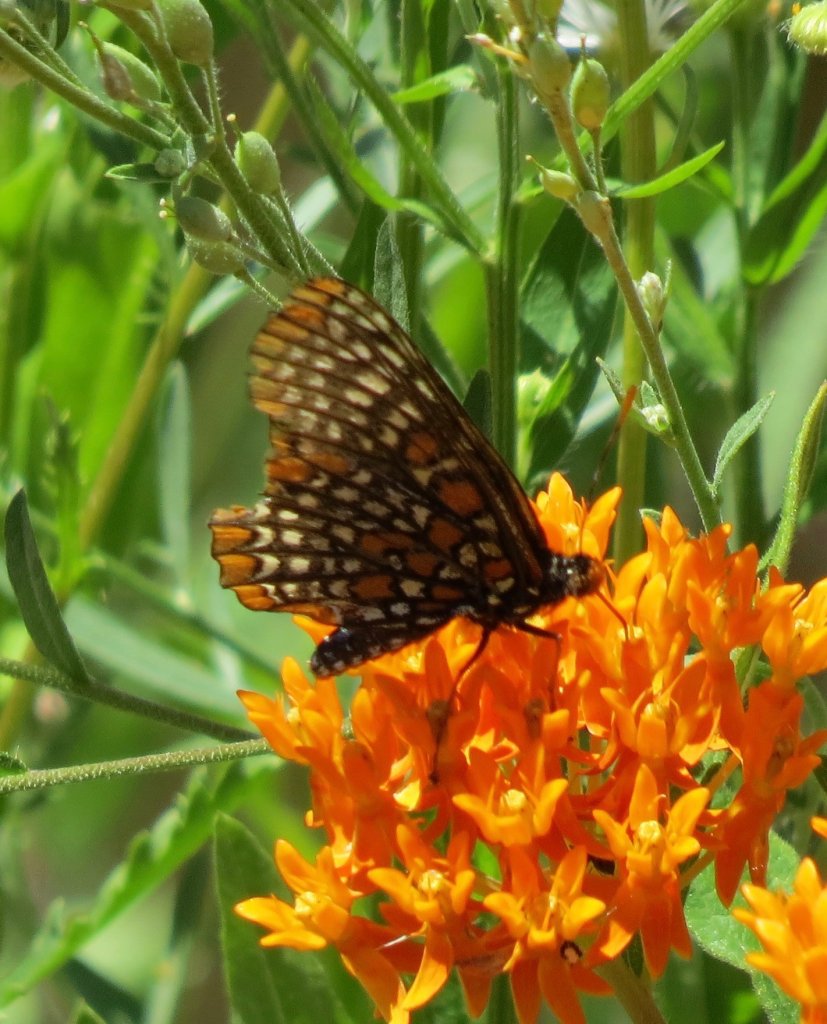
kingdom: Animalia
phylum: Arthropoda
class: Insecta
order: Lepidoptera
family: Nymphalidae
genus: Euphydryas
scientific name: Euphydryas phaeton
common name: Baltimore Checkerspot
